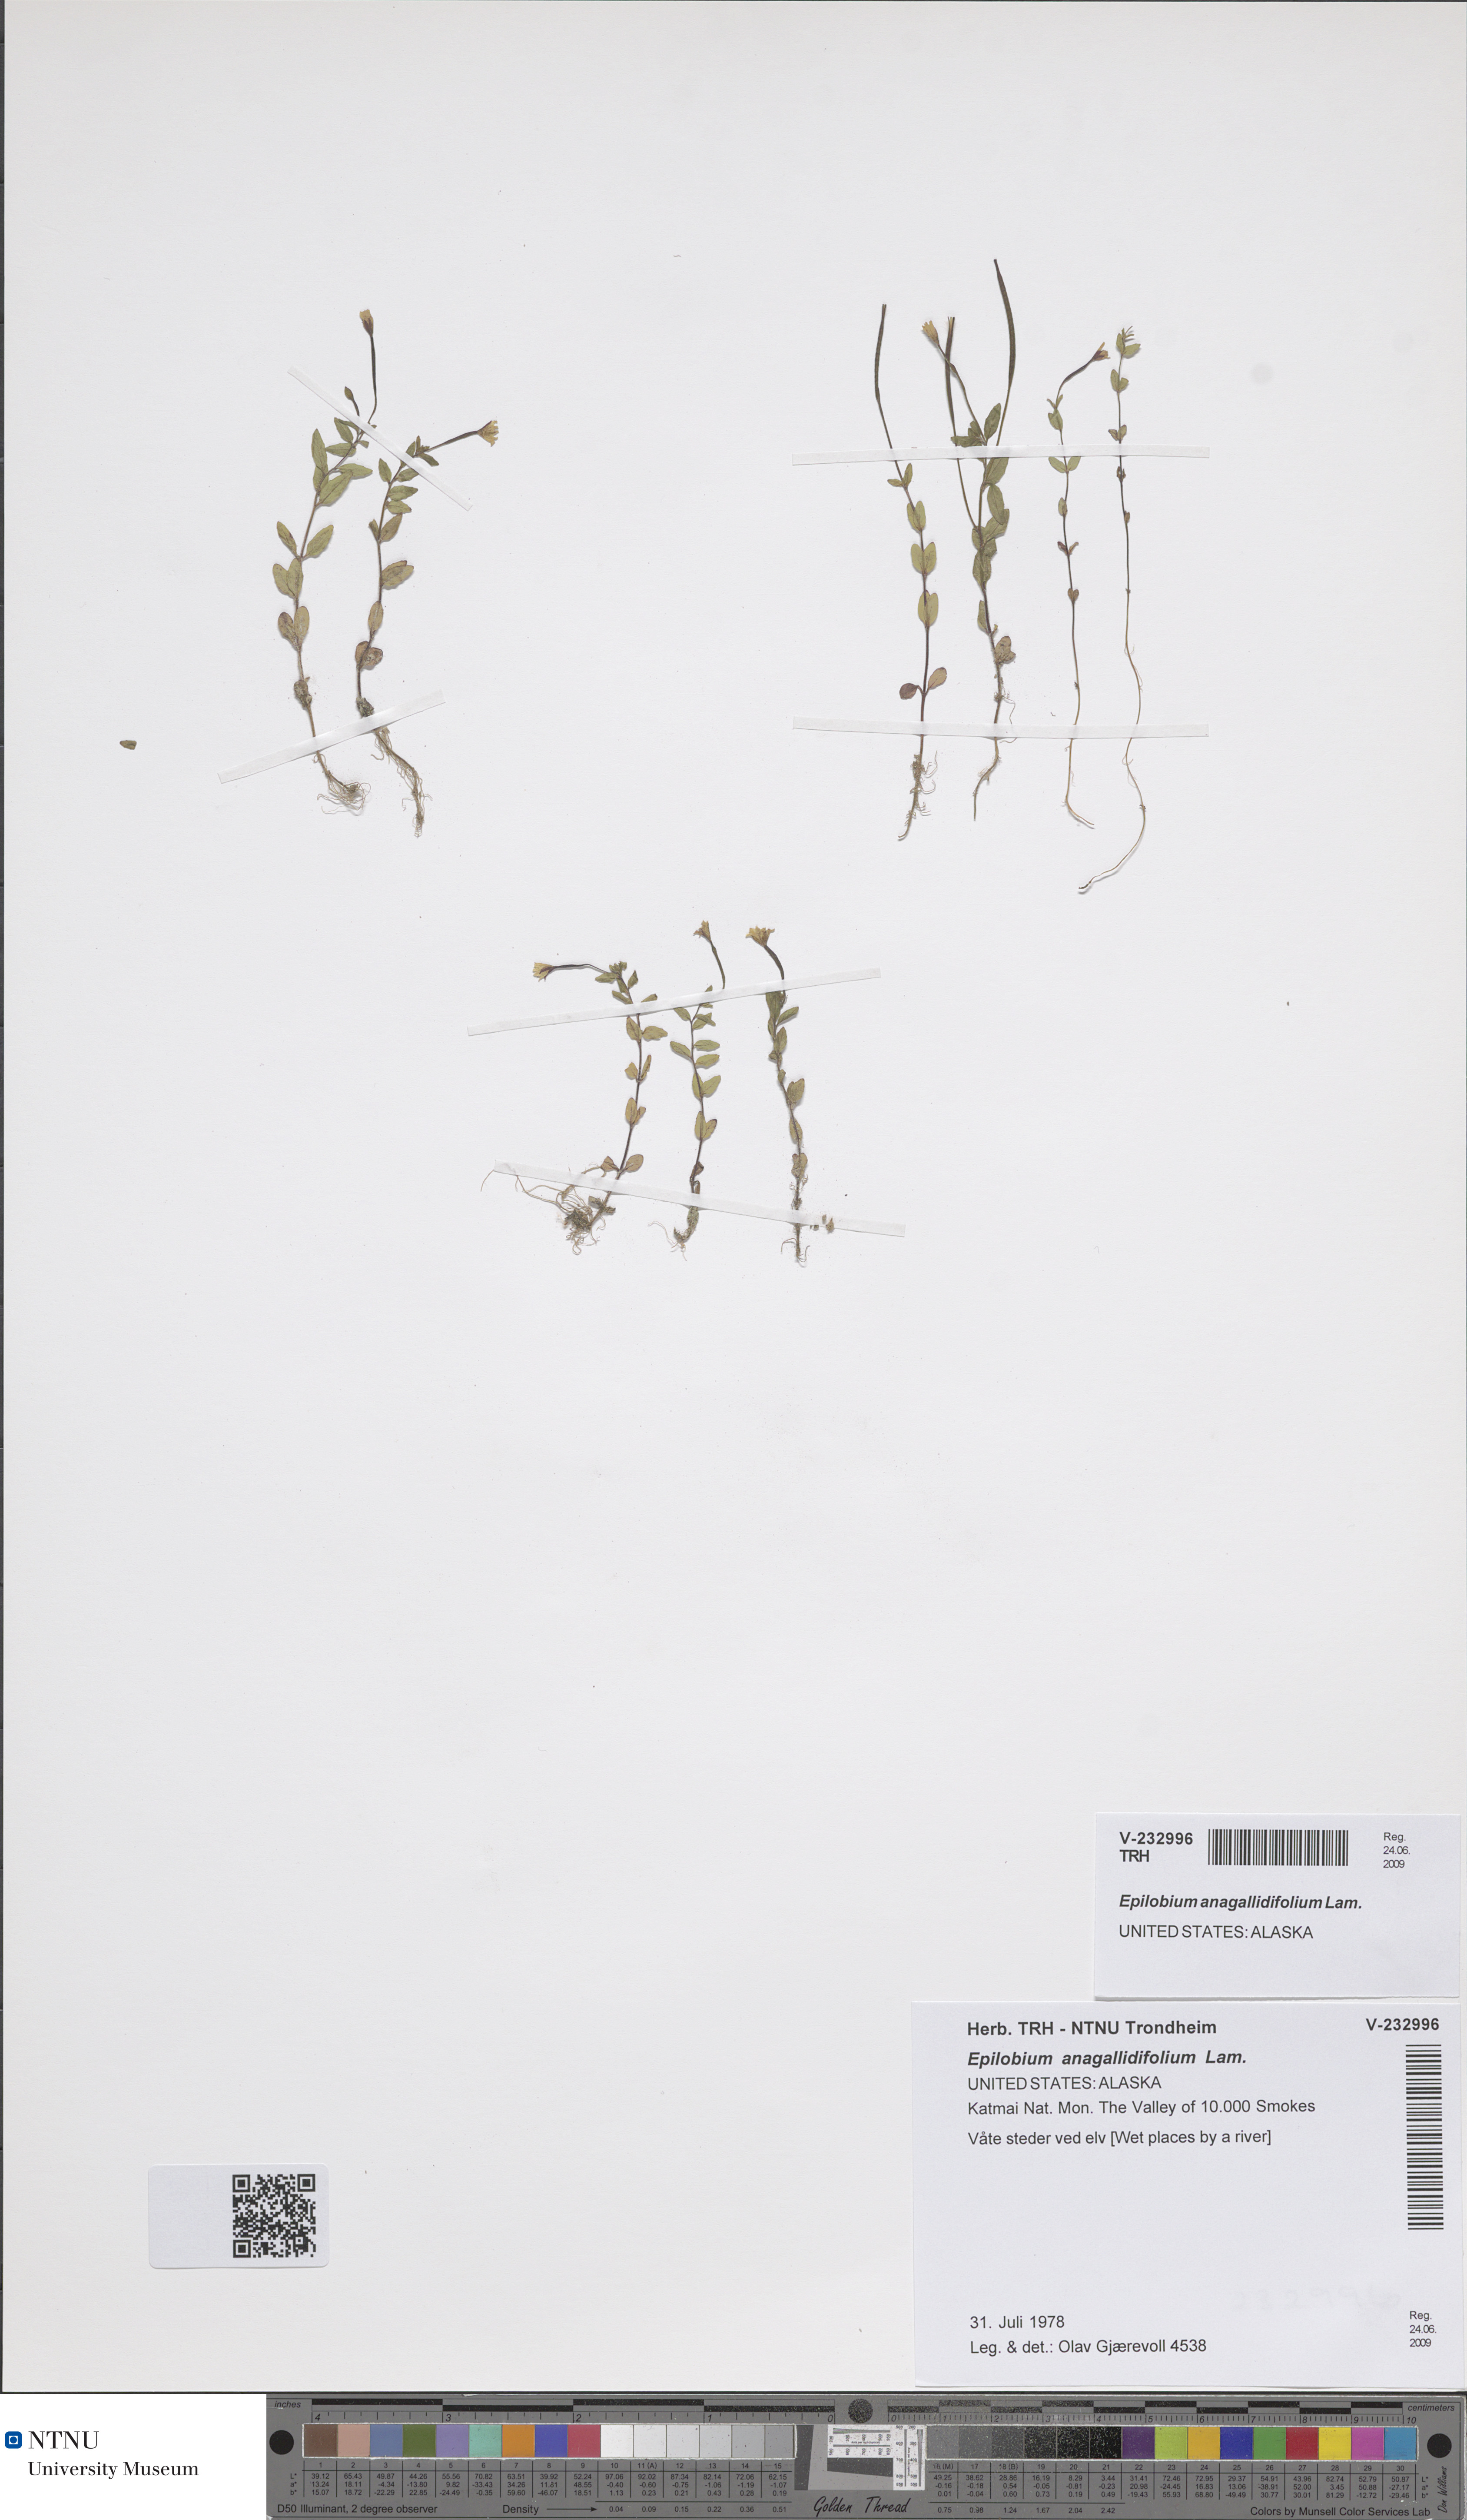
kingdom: Plantae
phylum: Tracheophyta
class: Magnoliopsida
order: Myrtales
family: Onagraceae
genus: Epilobium
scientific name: Epilobium anagallidifolium
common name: Alpine willowherb
